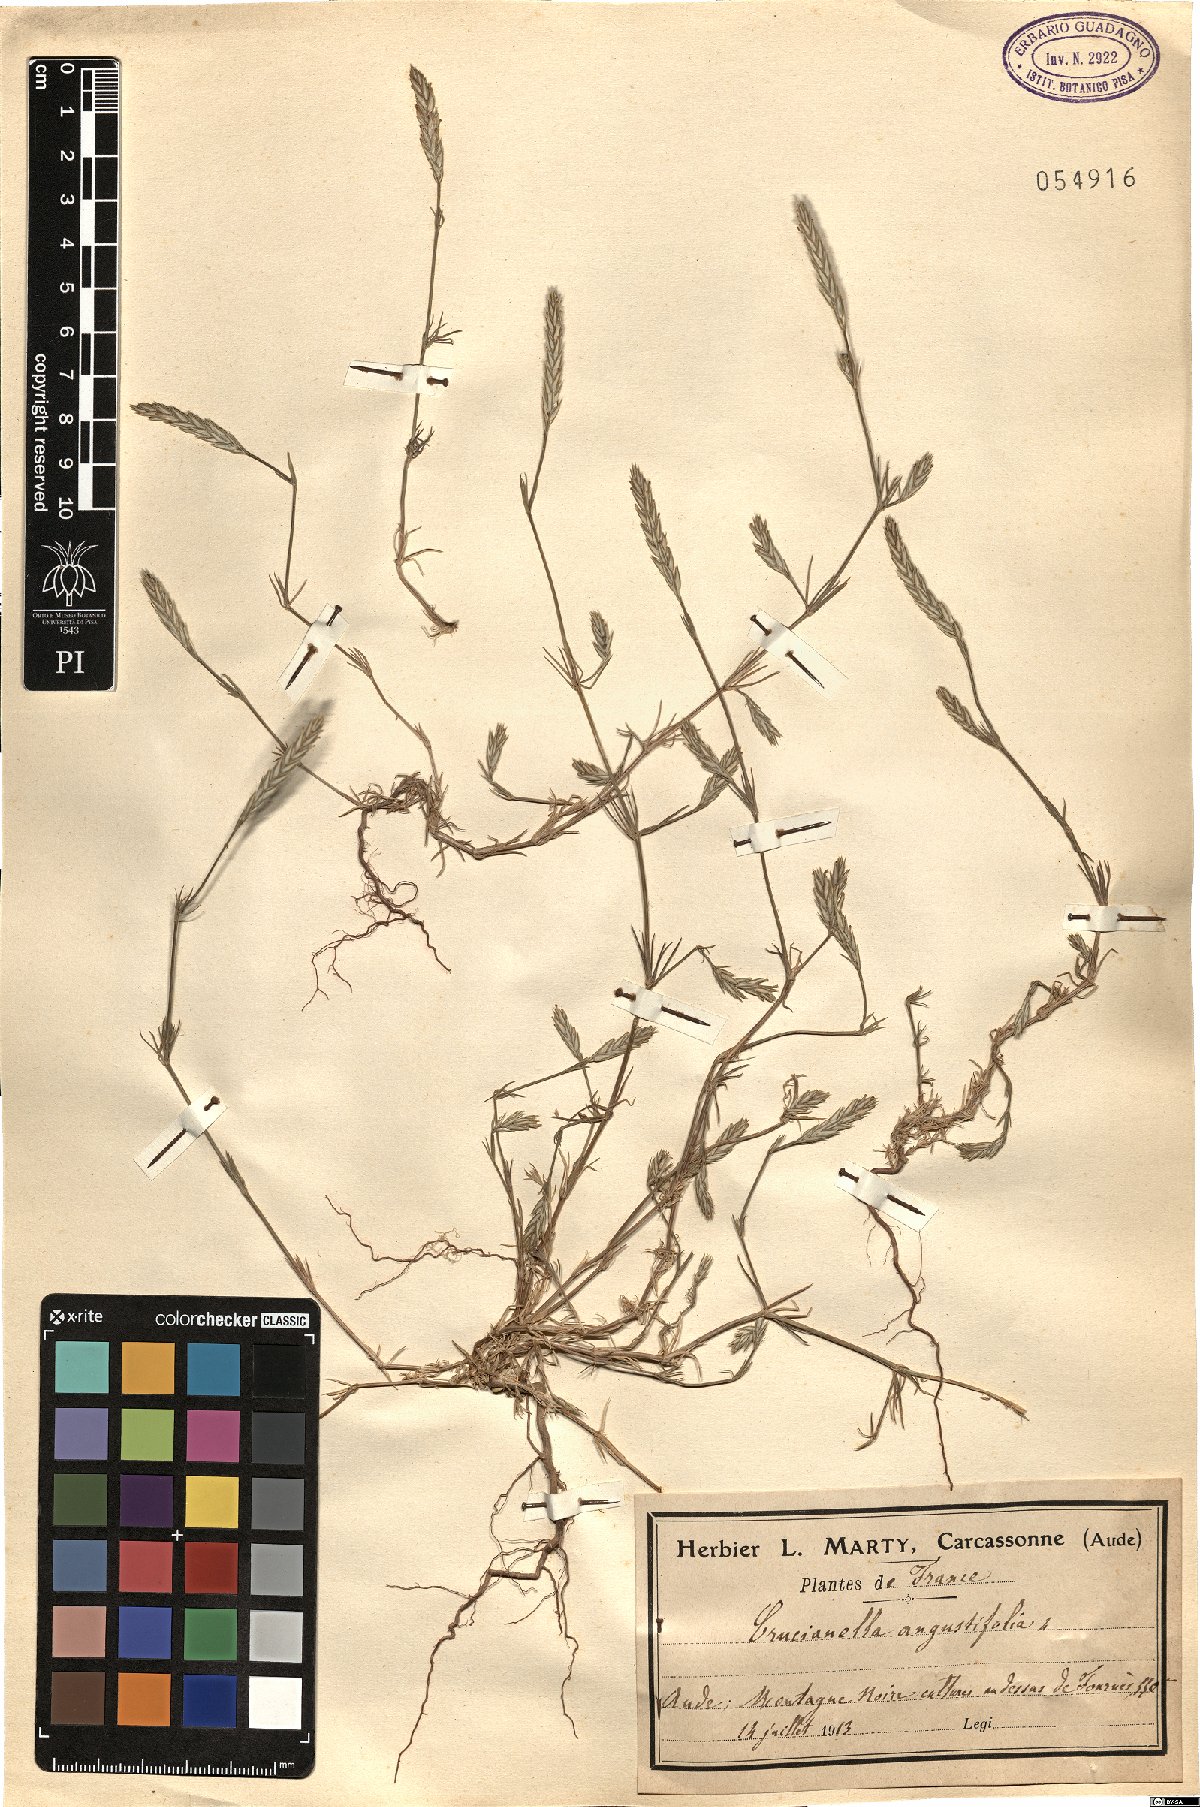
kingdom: Plantae
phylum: Tracheophyta
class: Magnoliopsida
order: Gentianales
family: Rubiaceae
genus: Crucianella
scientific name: Crucianella angustifolia
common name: Narrowleaf crucianella
